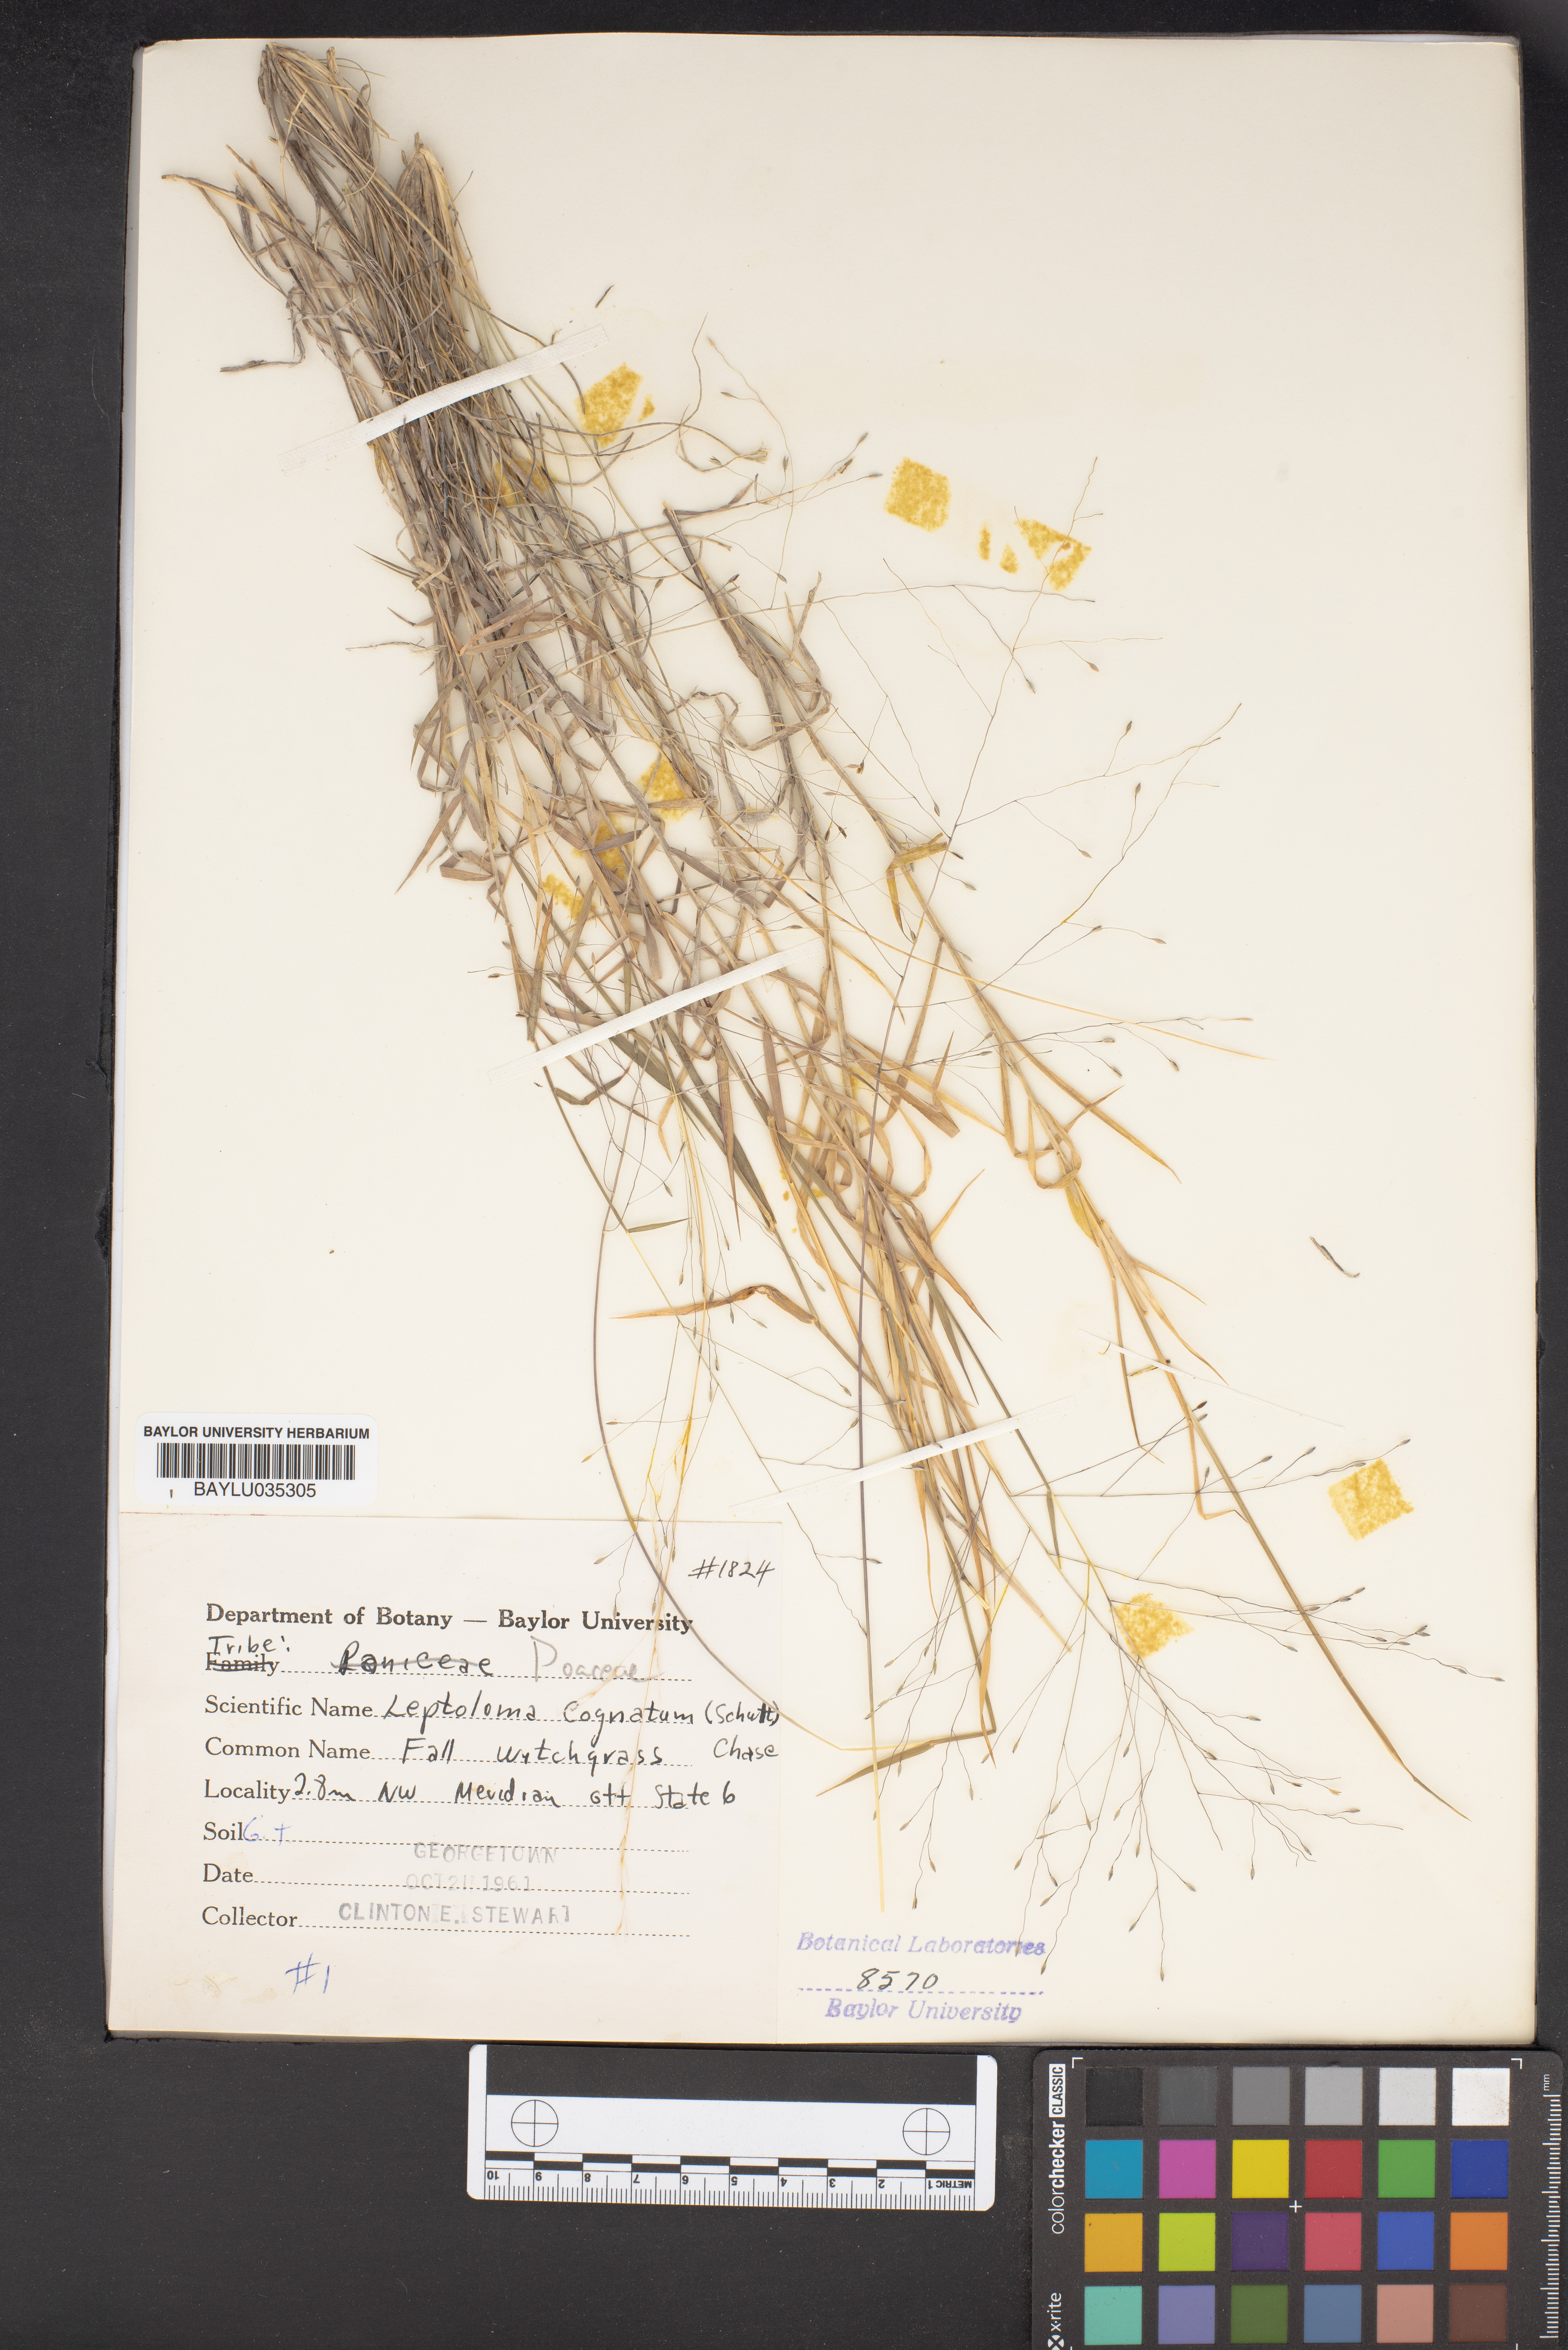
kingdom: Plantae
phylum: Tracheophyta
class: Liliopsida
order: Poales
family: Poaceae
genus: Digitaria
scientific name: Digitaria cognata
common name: Fall witchgrass
